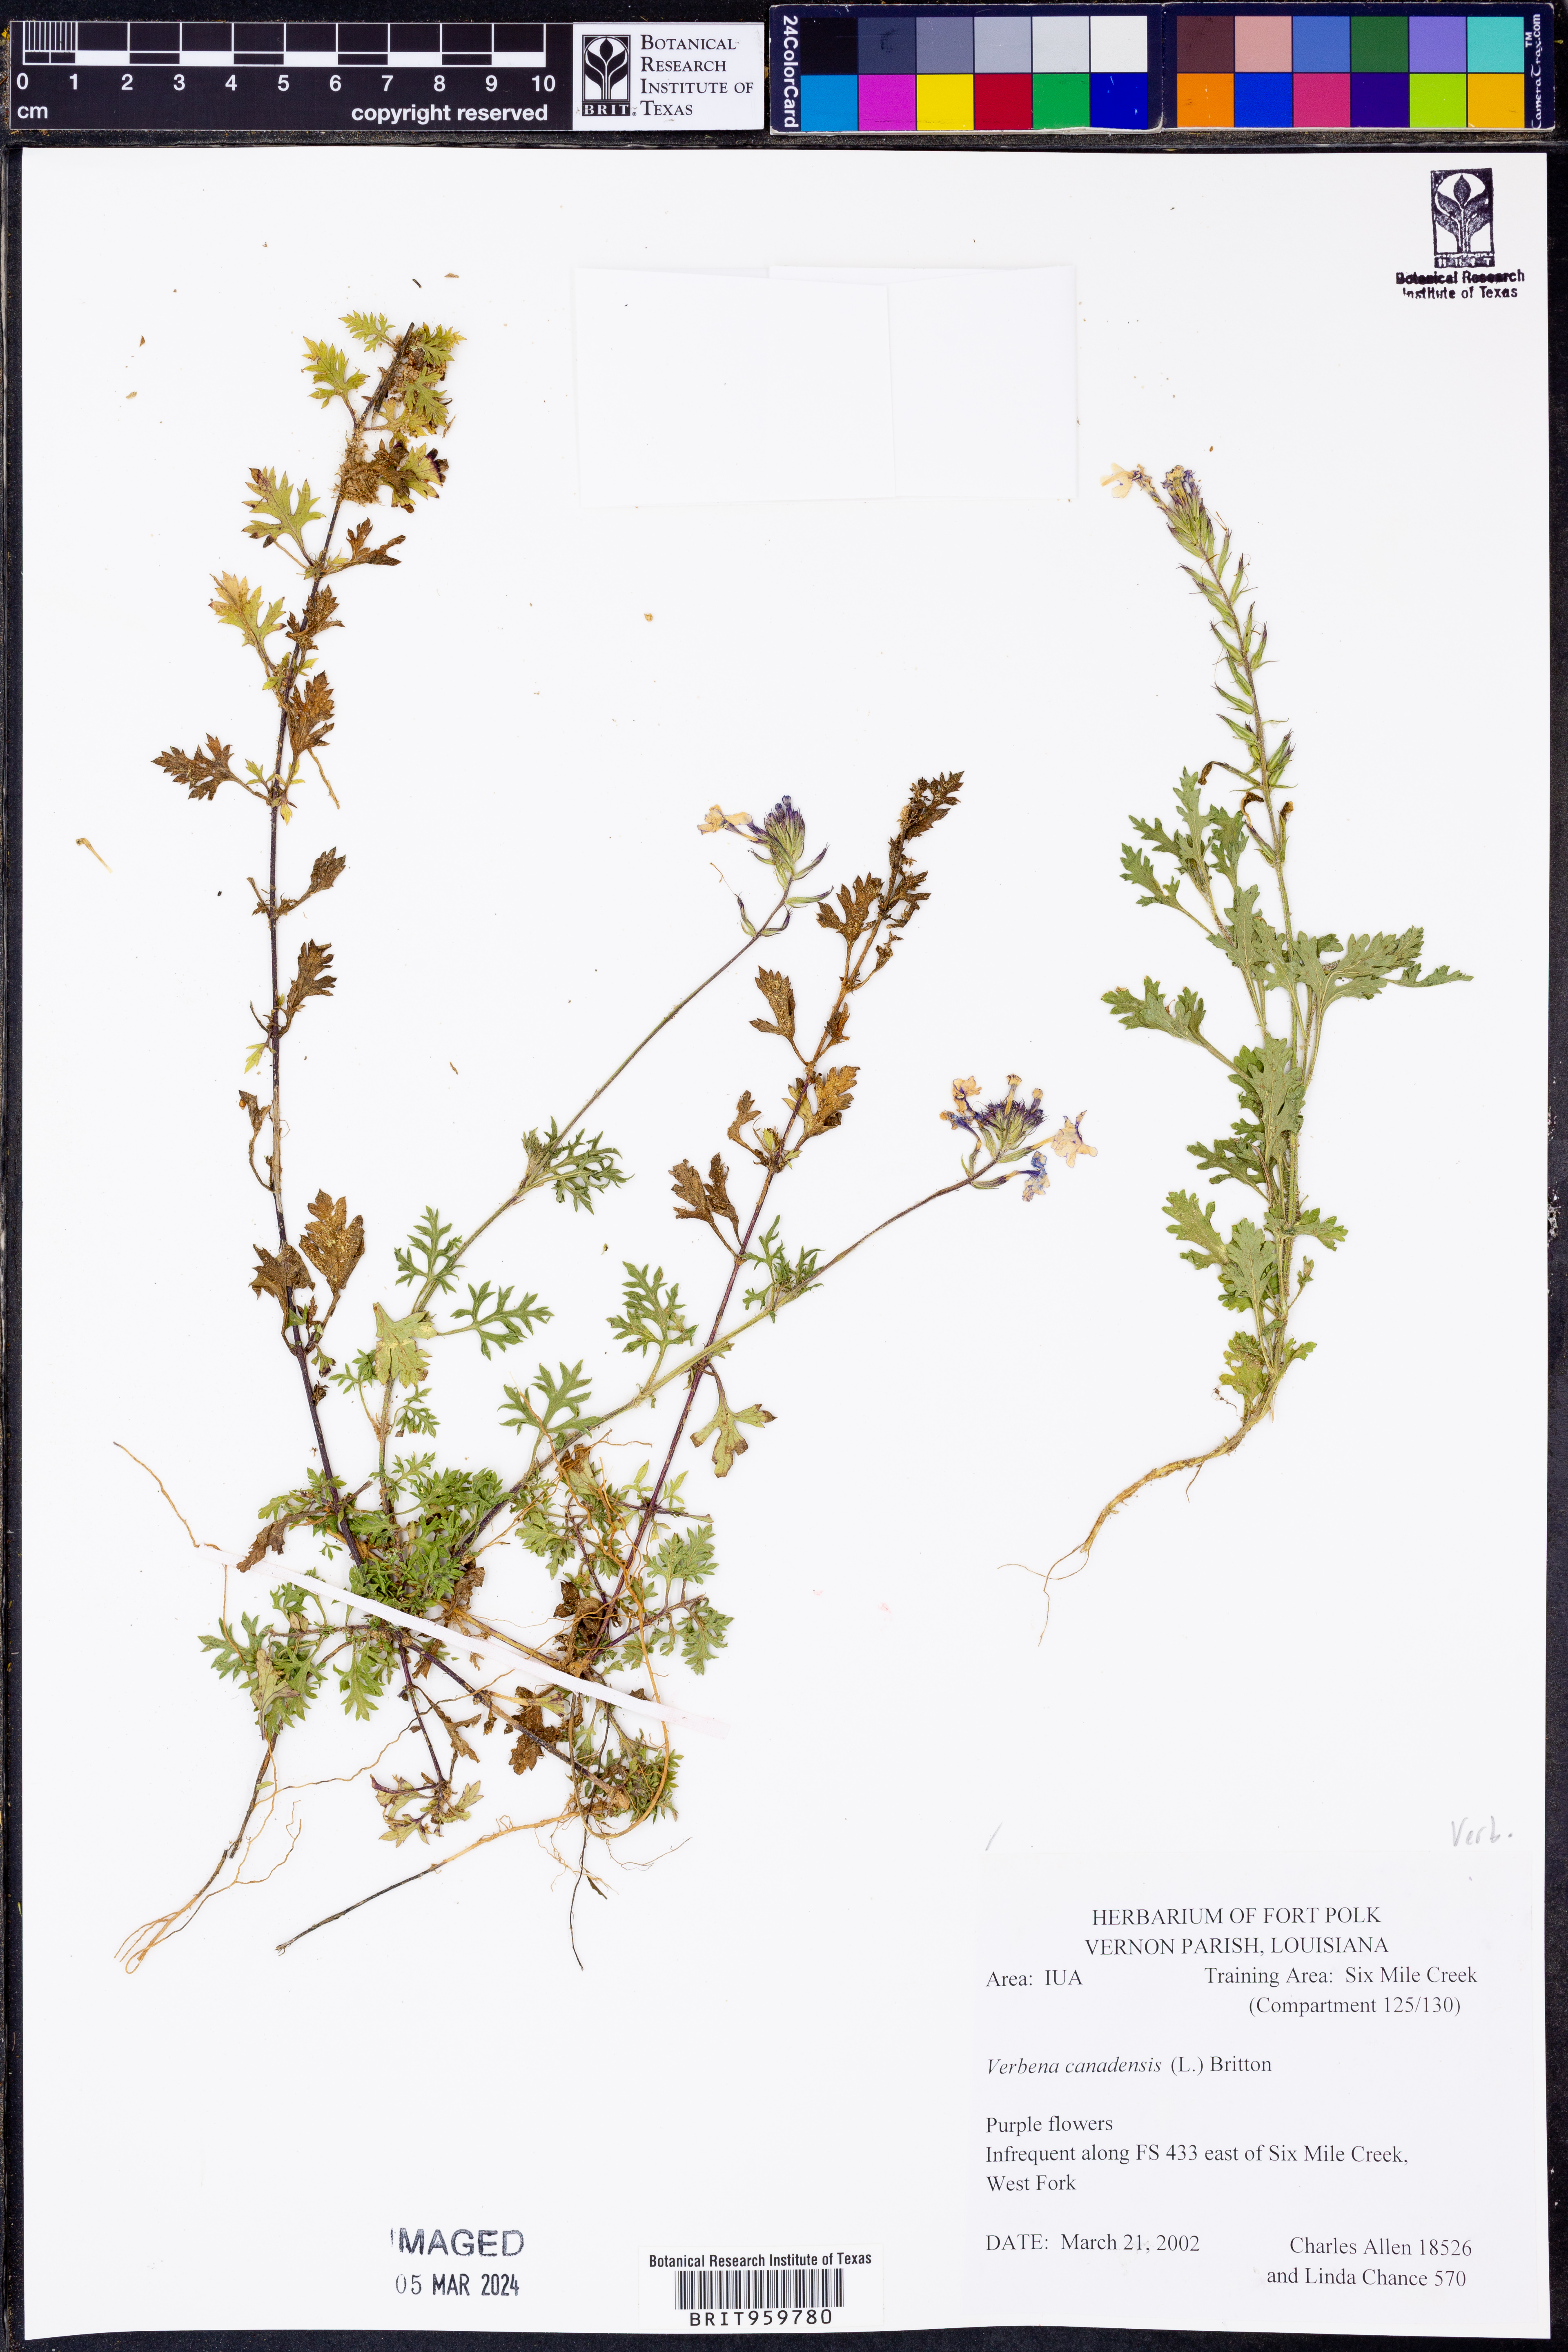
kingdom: Plantae
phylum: Tracheophyta
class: Magnoliopsida
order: Lamiales
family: Verbenaceae
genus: Verbena
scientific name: Verbena canadensis
